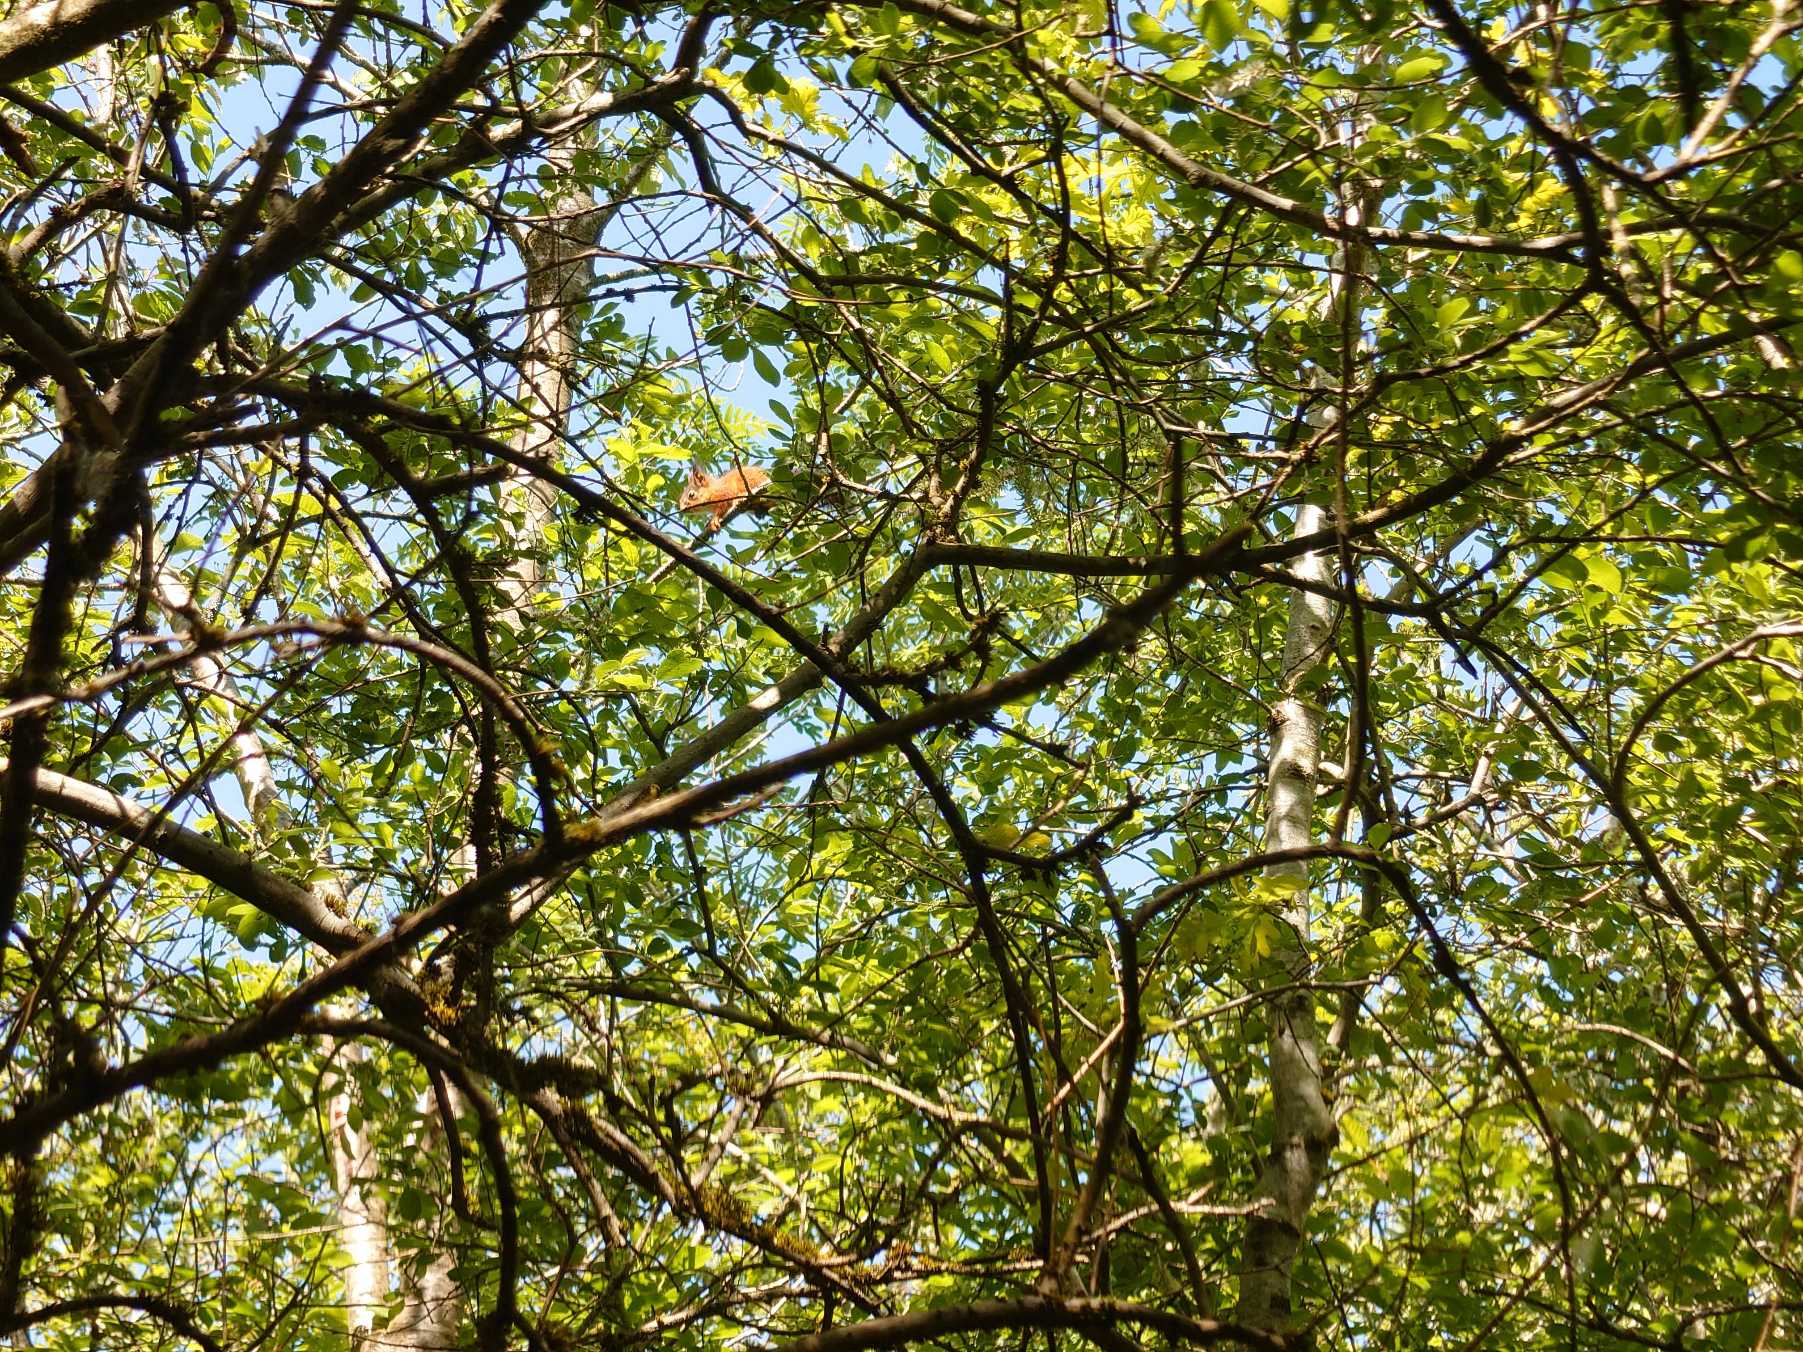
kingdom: Animalia
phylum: Chordata
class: Mammalia
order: Rodentia
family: Sciuridae
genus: Sciurus
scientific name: Sciurus vulgaris
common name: Egern
